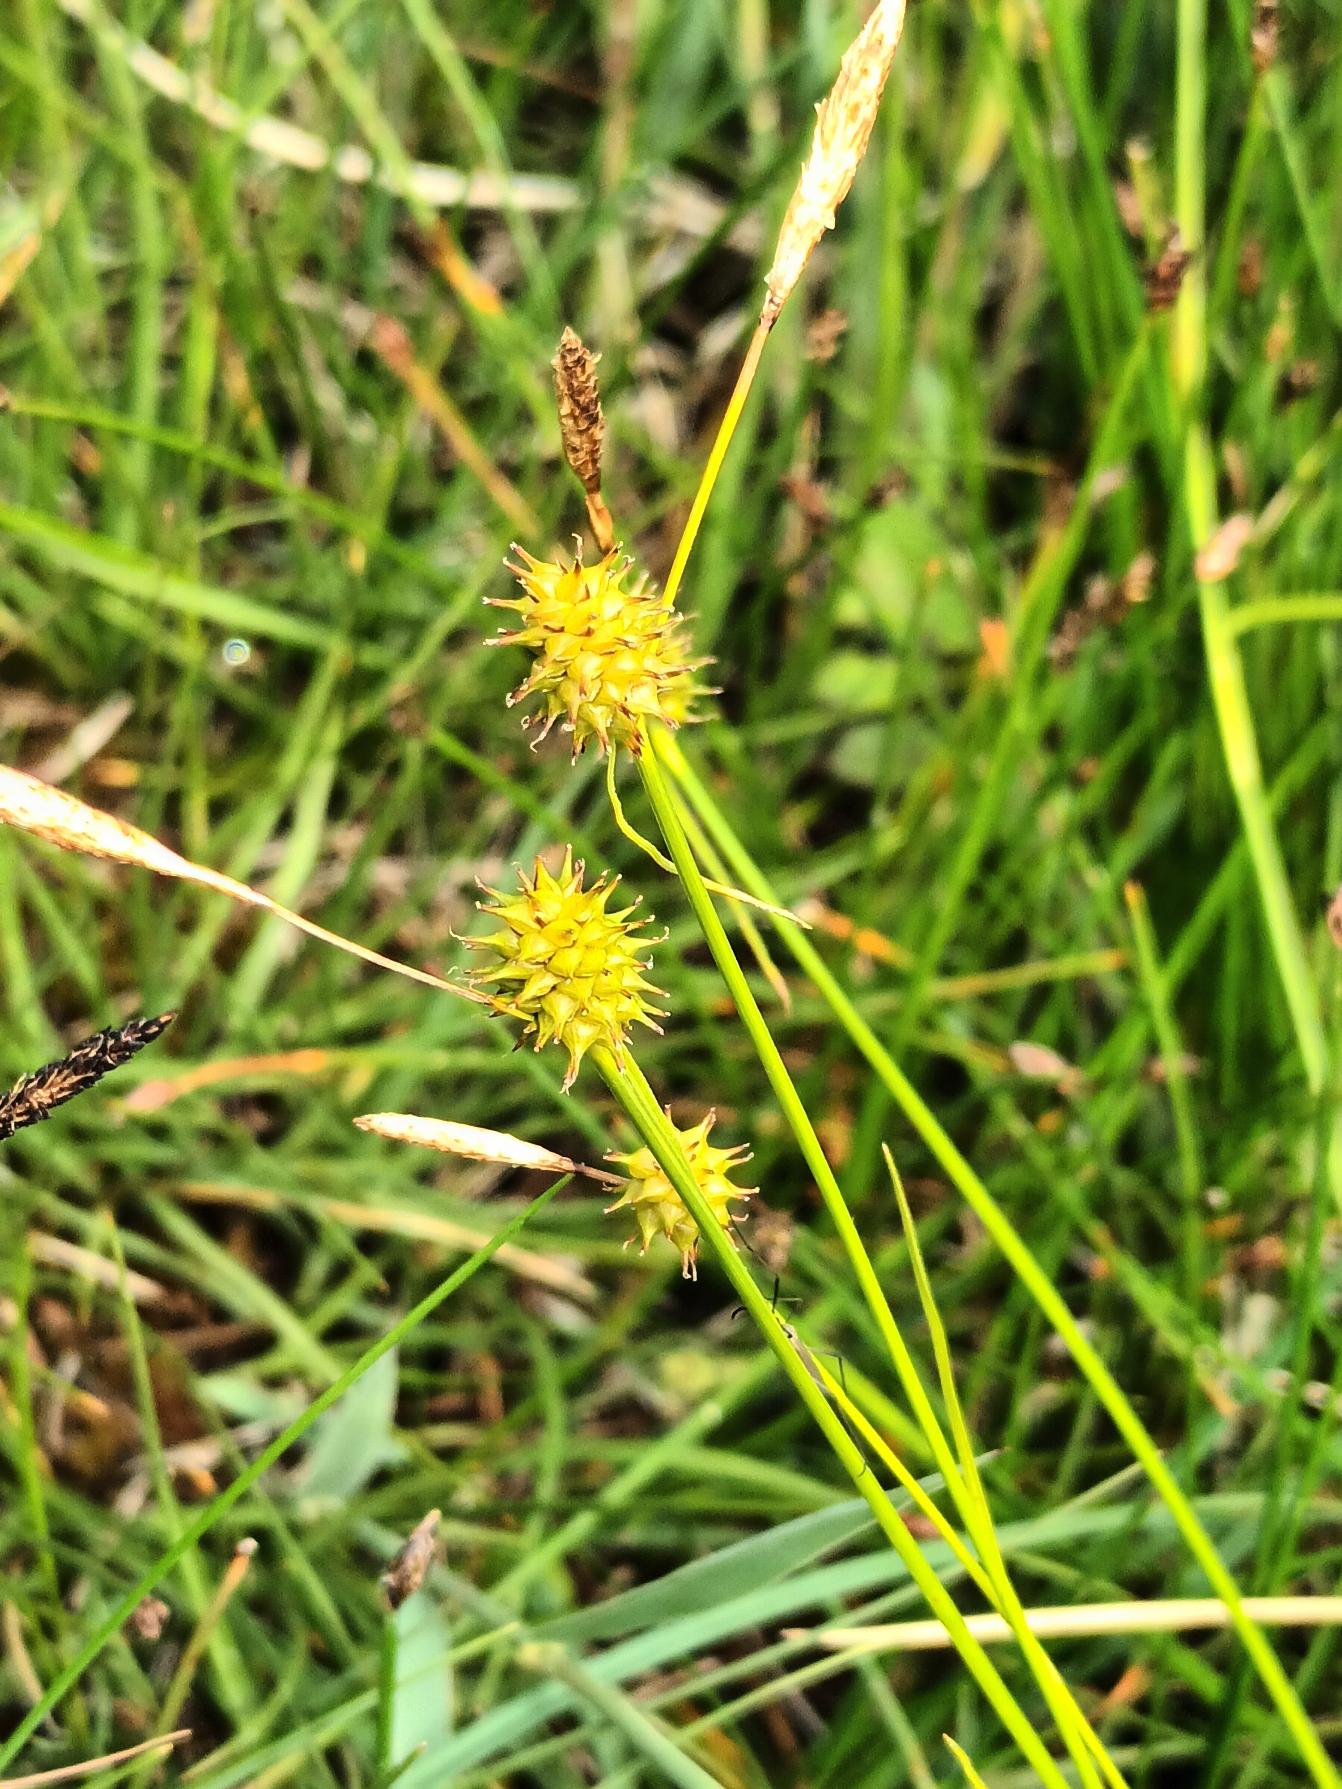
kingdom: Plantae
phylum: Tracheophyta
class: Liliopsida
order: Poales
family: Cyperaceae
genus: Carex
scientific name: Carex lepidocarpa
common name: Krognæb-star
